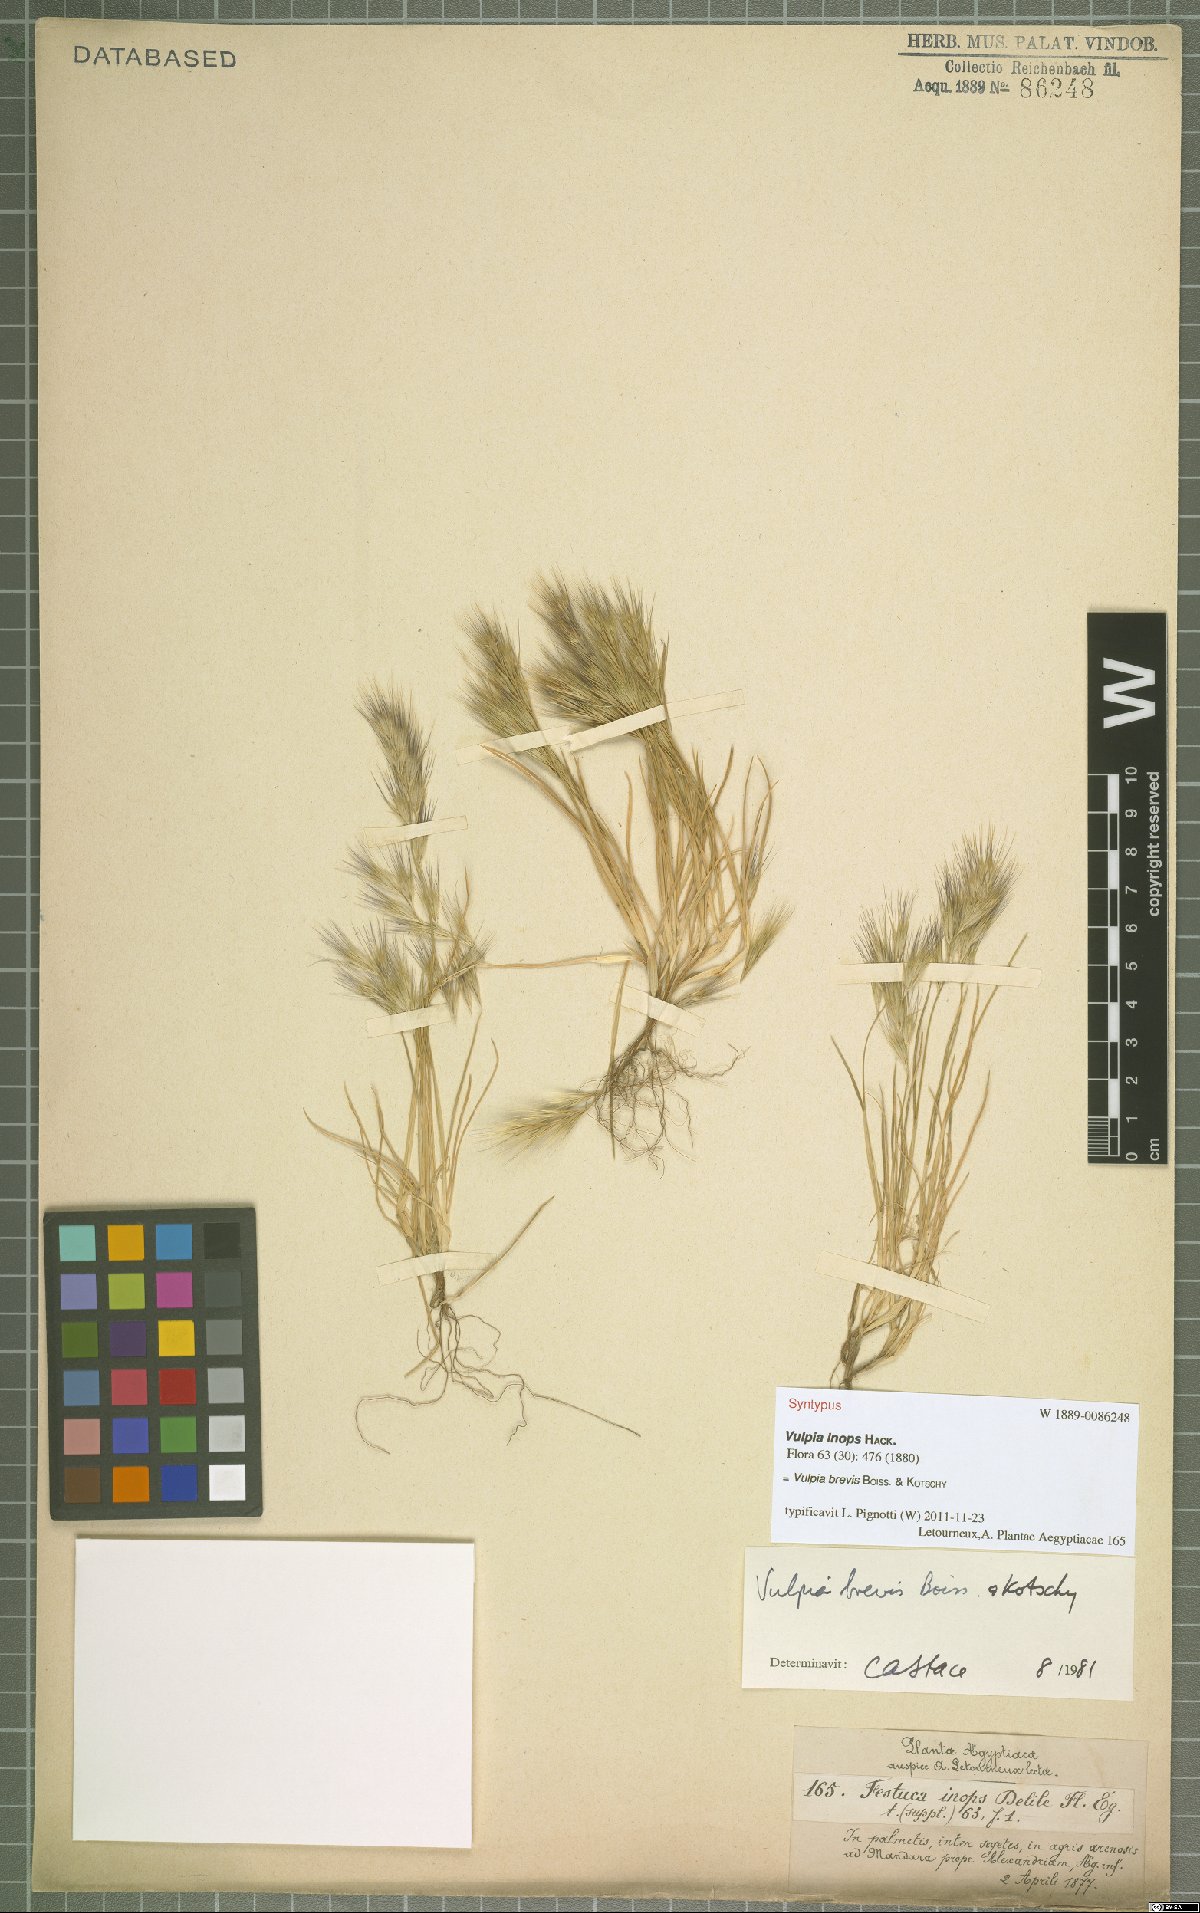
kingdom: Plantae
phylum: Tracheophyta
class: Liliopsida
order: Poales
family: Poaceae
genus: Festuca
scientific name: Festuca brevis
